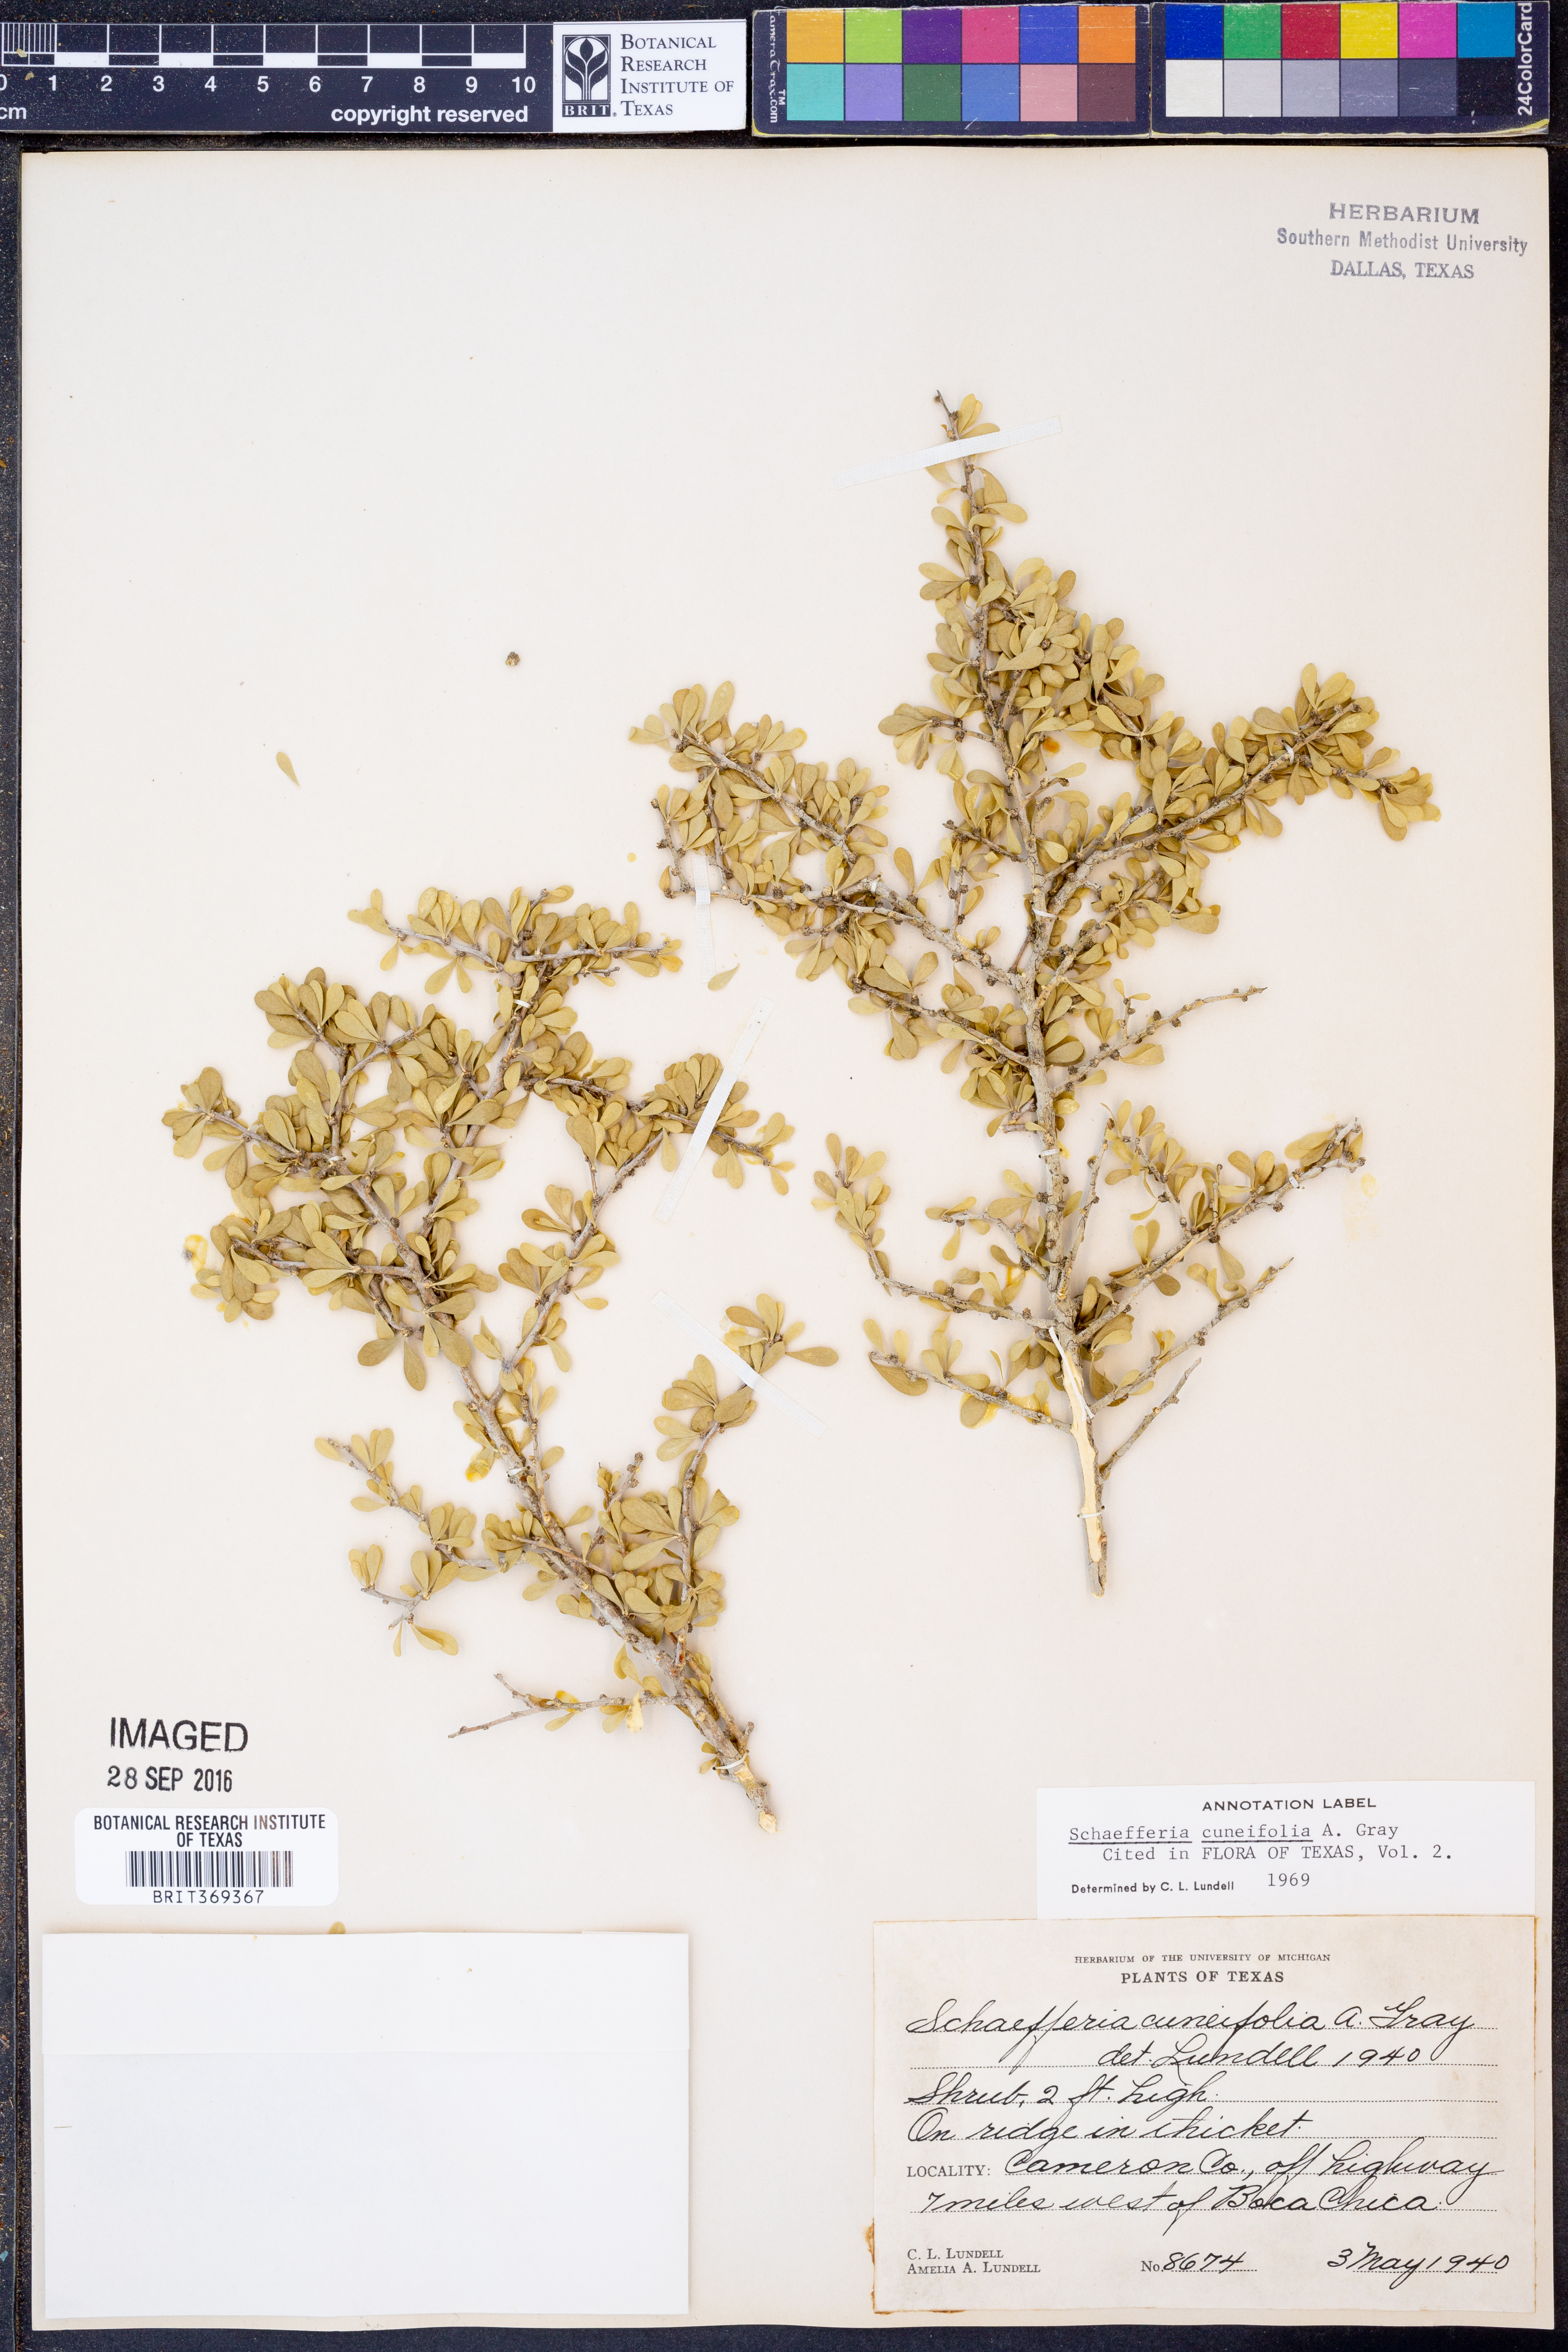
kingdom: Plantae
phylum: Tracheophyta
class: Magnoliopsida
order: Celastrales
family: Celastraceae
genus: Schaefferia
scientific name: Schaefferia cuneifolia
